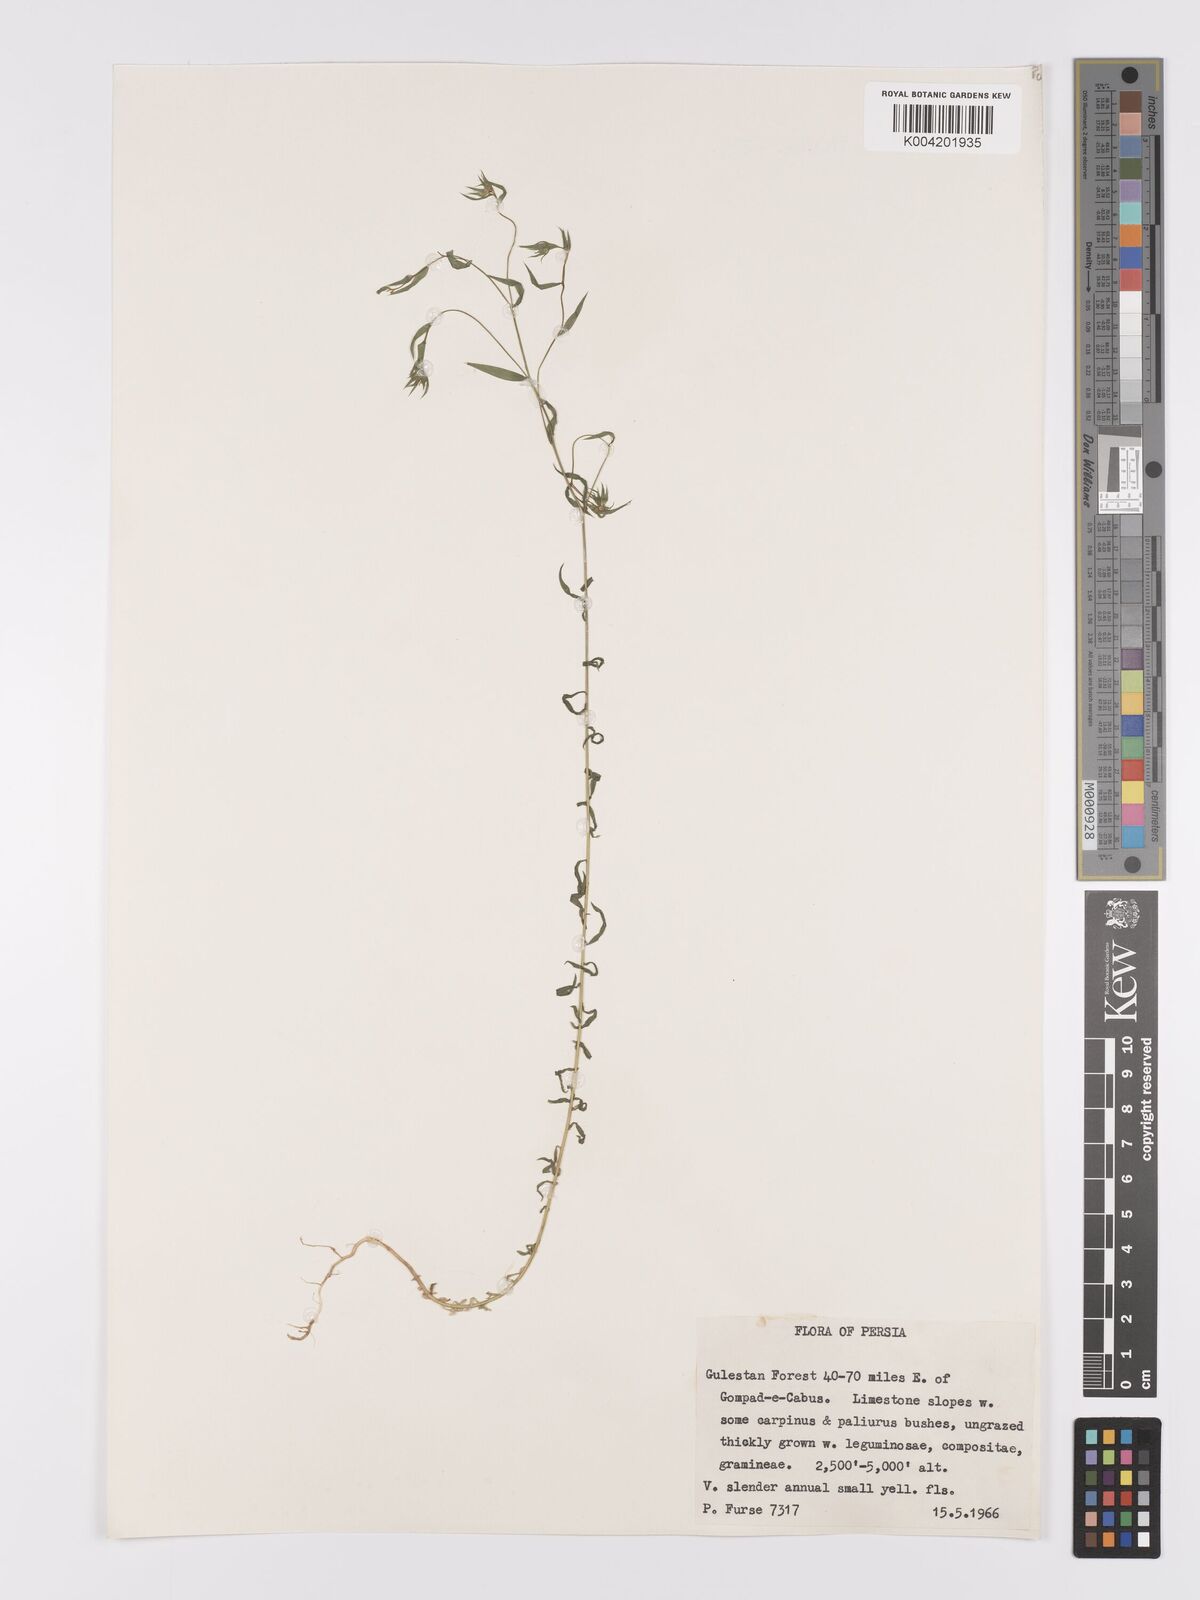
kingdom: Plantae
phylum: Tracheophyta
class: Magnoliopsida
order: Malpighiales
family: Linaceae
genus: Linum
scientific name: Linum
